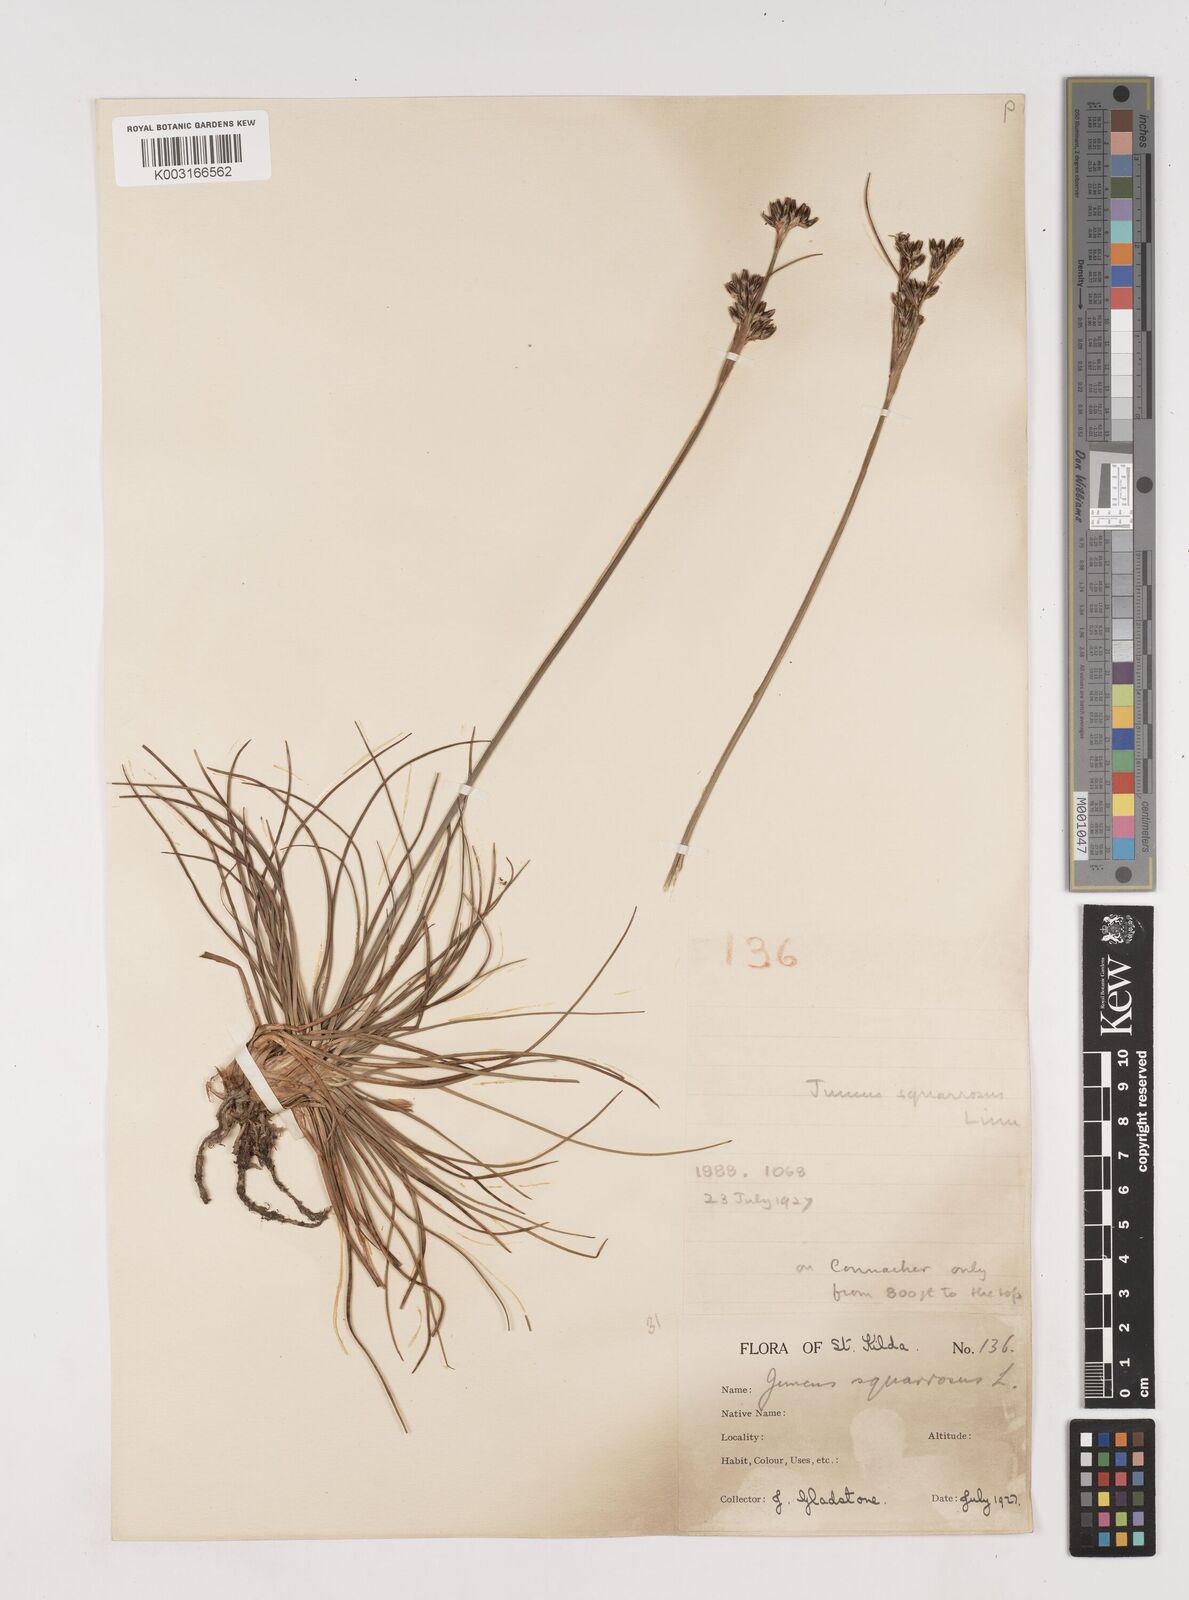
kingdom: Plantae
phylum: Tracheophyta
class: Liliopsida
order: Poales
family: Juncaceae
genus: Juncus
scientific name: Juncus squarrosus
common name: Heath rush
